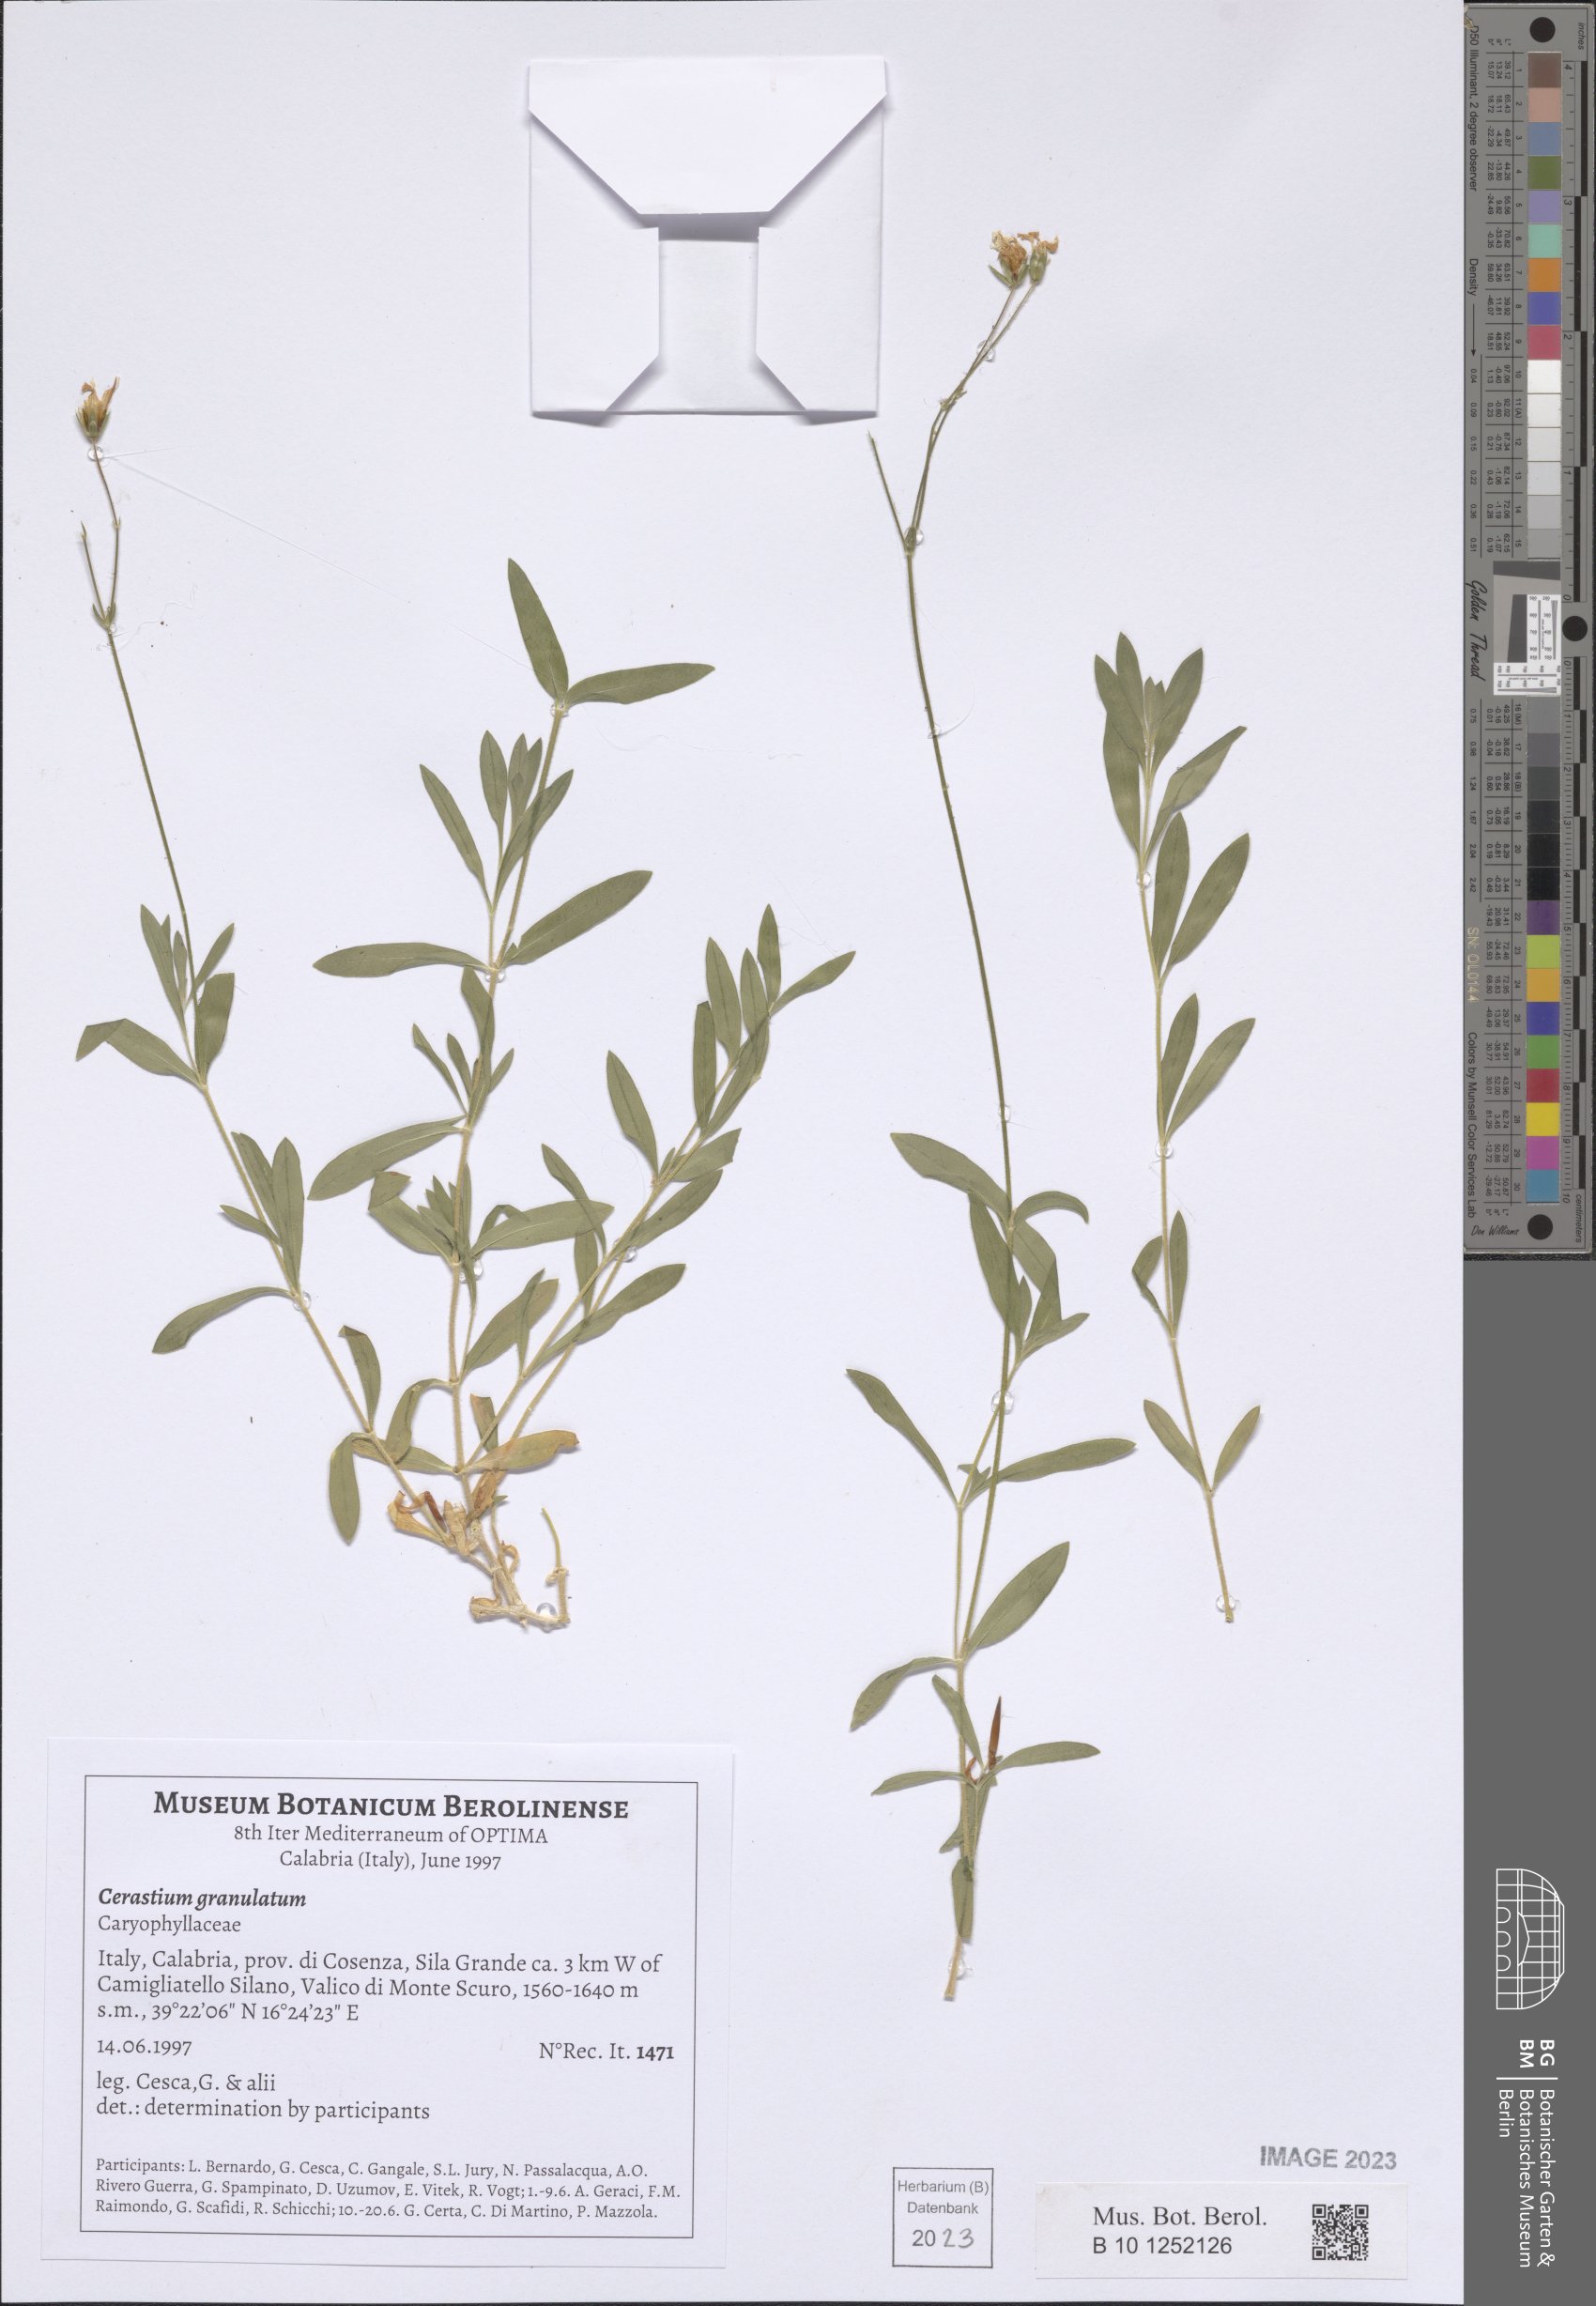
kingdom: Plantae
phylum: Tracheophyta
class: Magnoliopsida
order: Caryophyllales
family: Caryophyllaceae
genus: Cerastium
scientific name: Cerastium ligusticum
